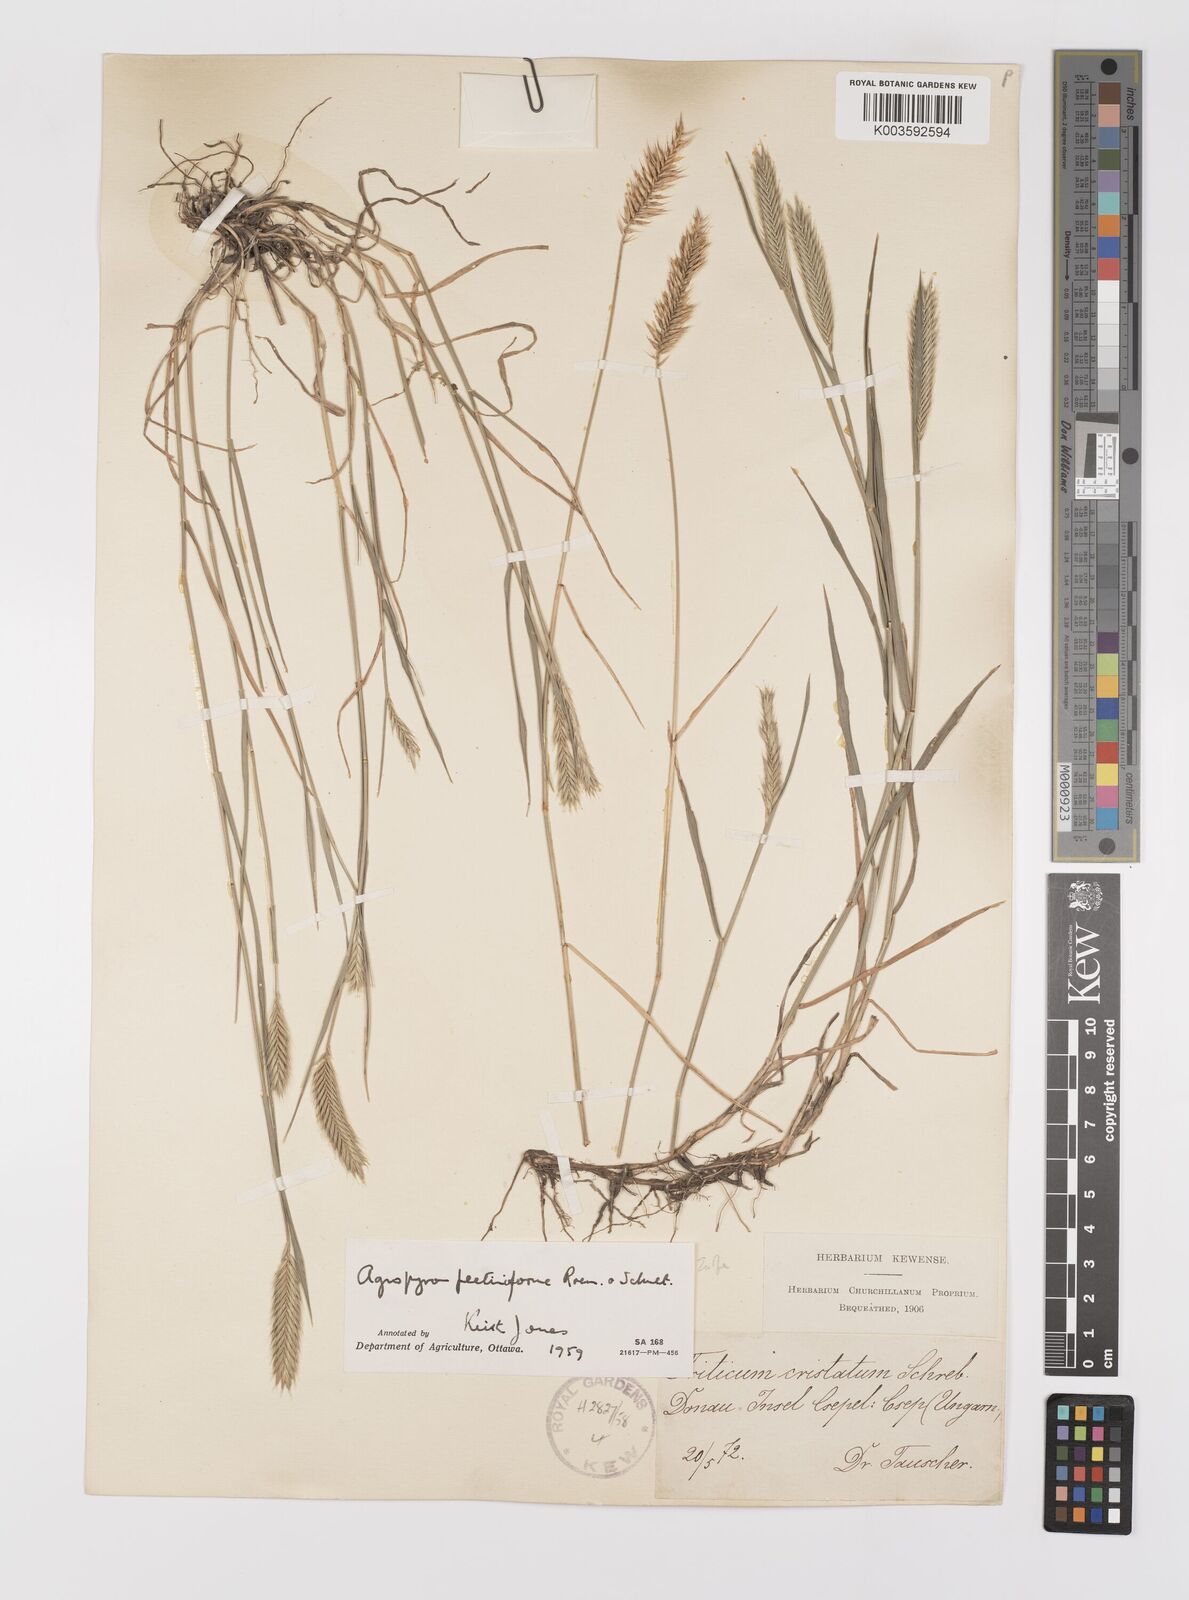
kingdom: Plantae
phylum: Tracheophyta
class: Liliopsida
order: Poales
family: Poaceae
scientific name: Poaceae
